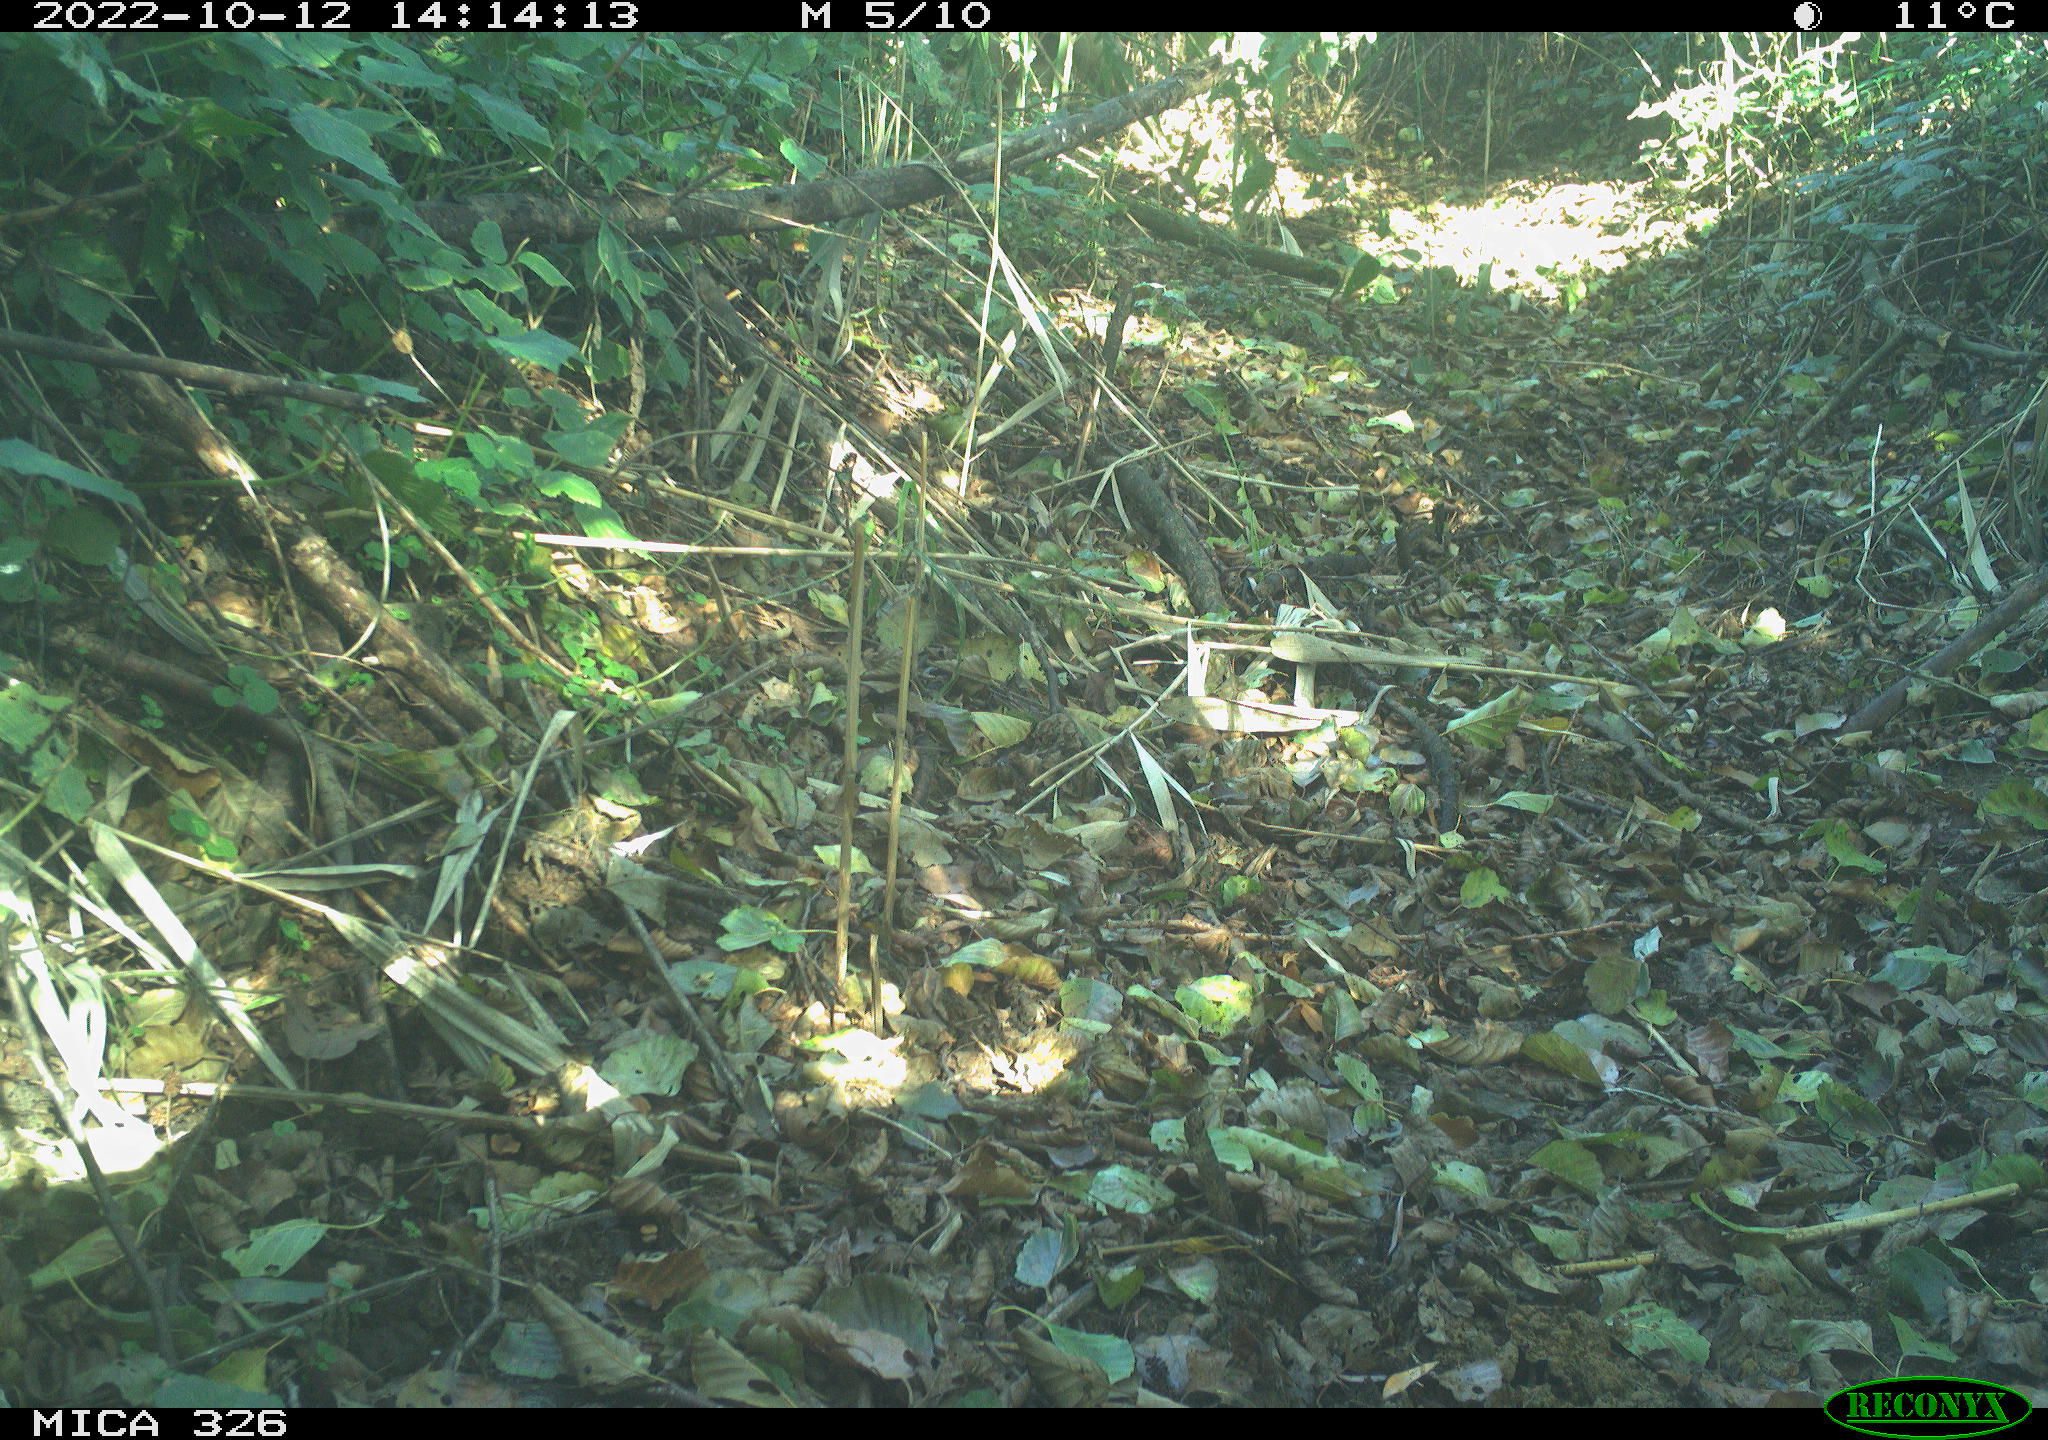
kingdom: Animalia
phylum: Chordata
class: Mammalia
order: Carnivora
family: Canidae
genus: Canis
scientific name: Canis lupus
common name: Gray wolf
